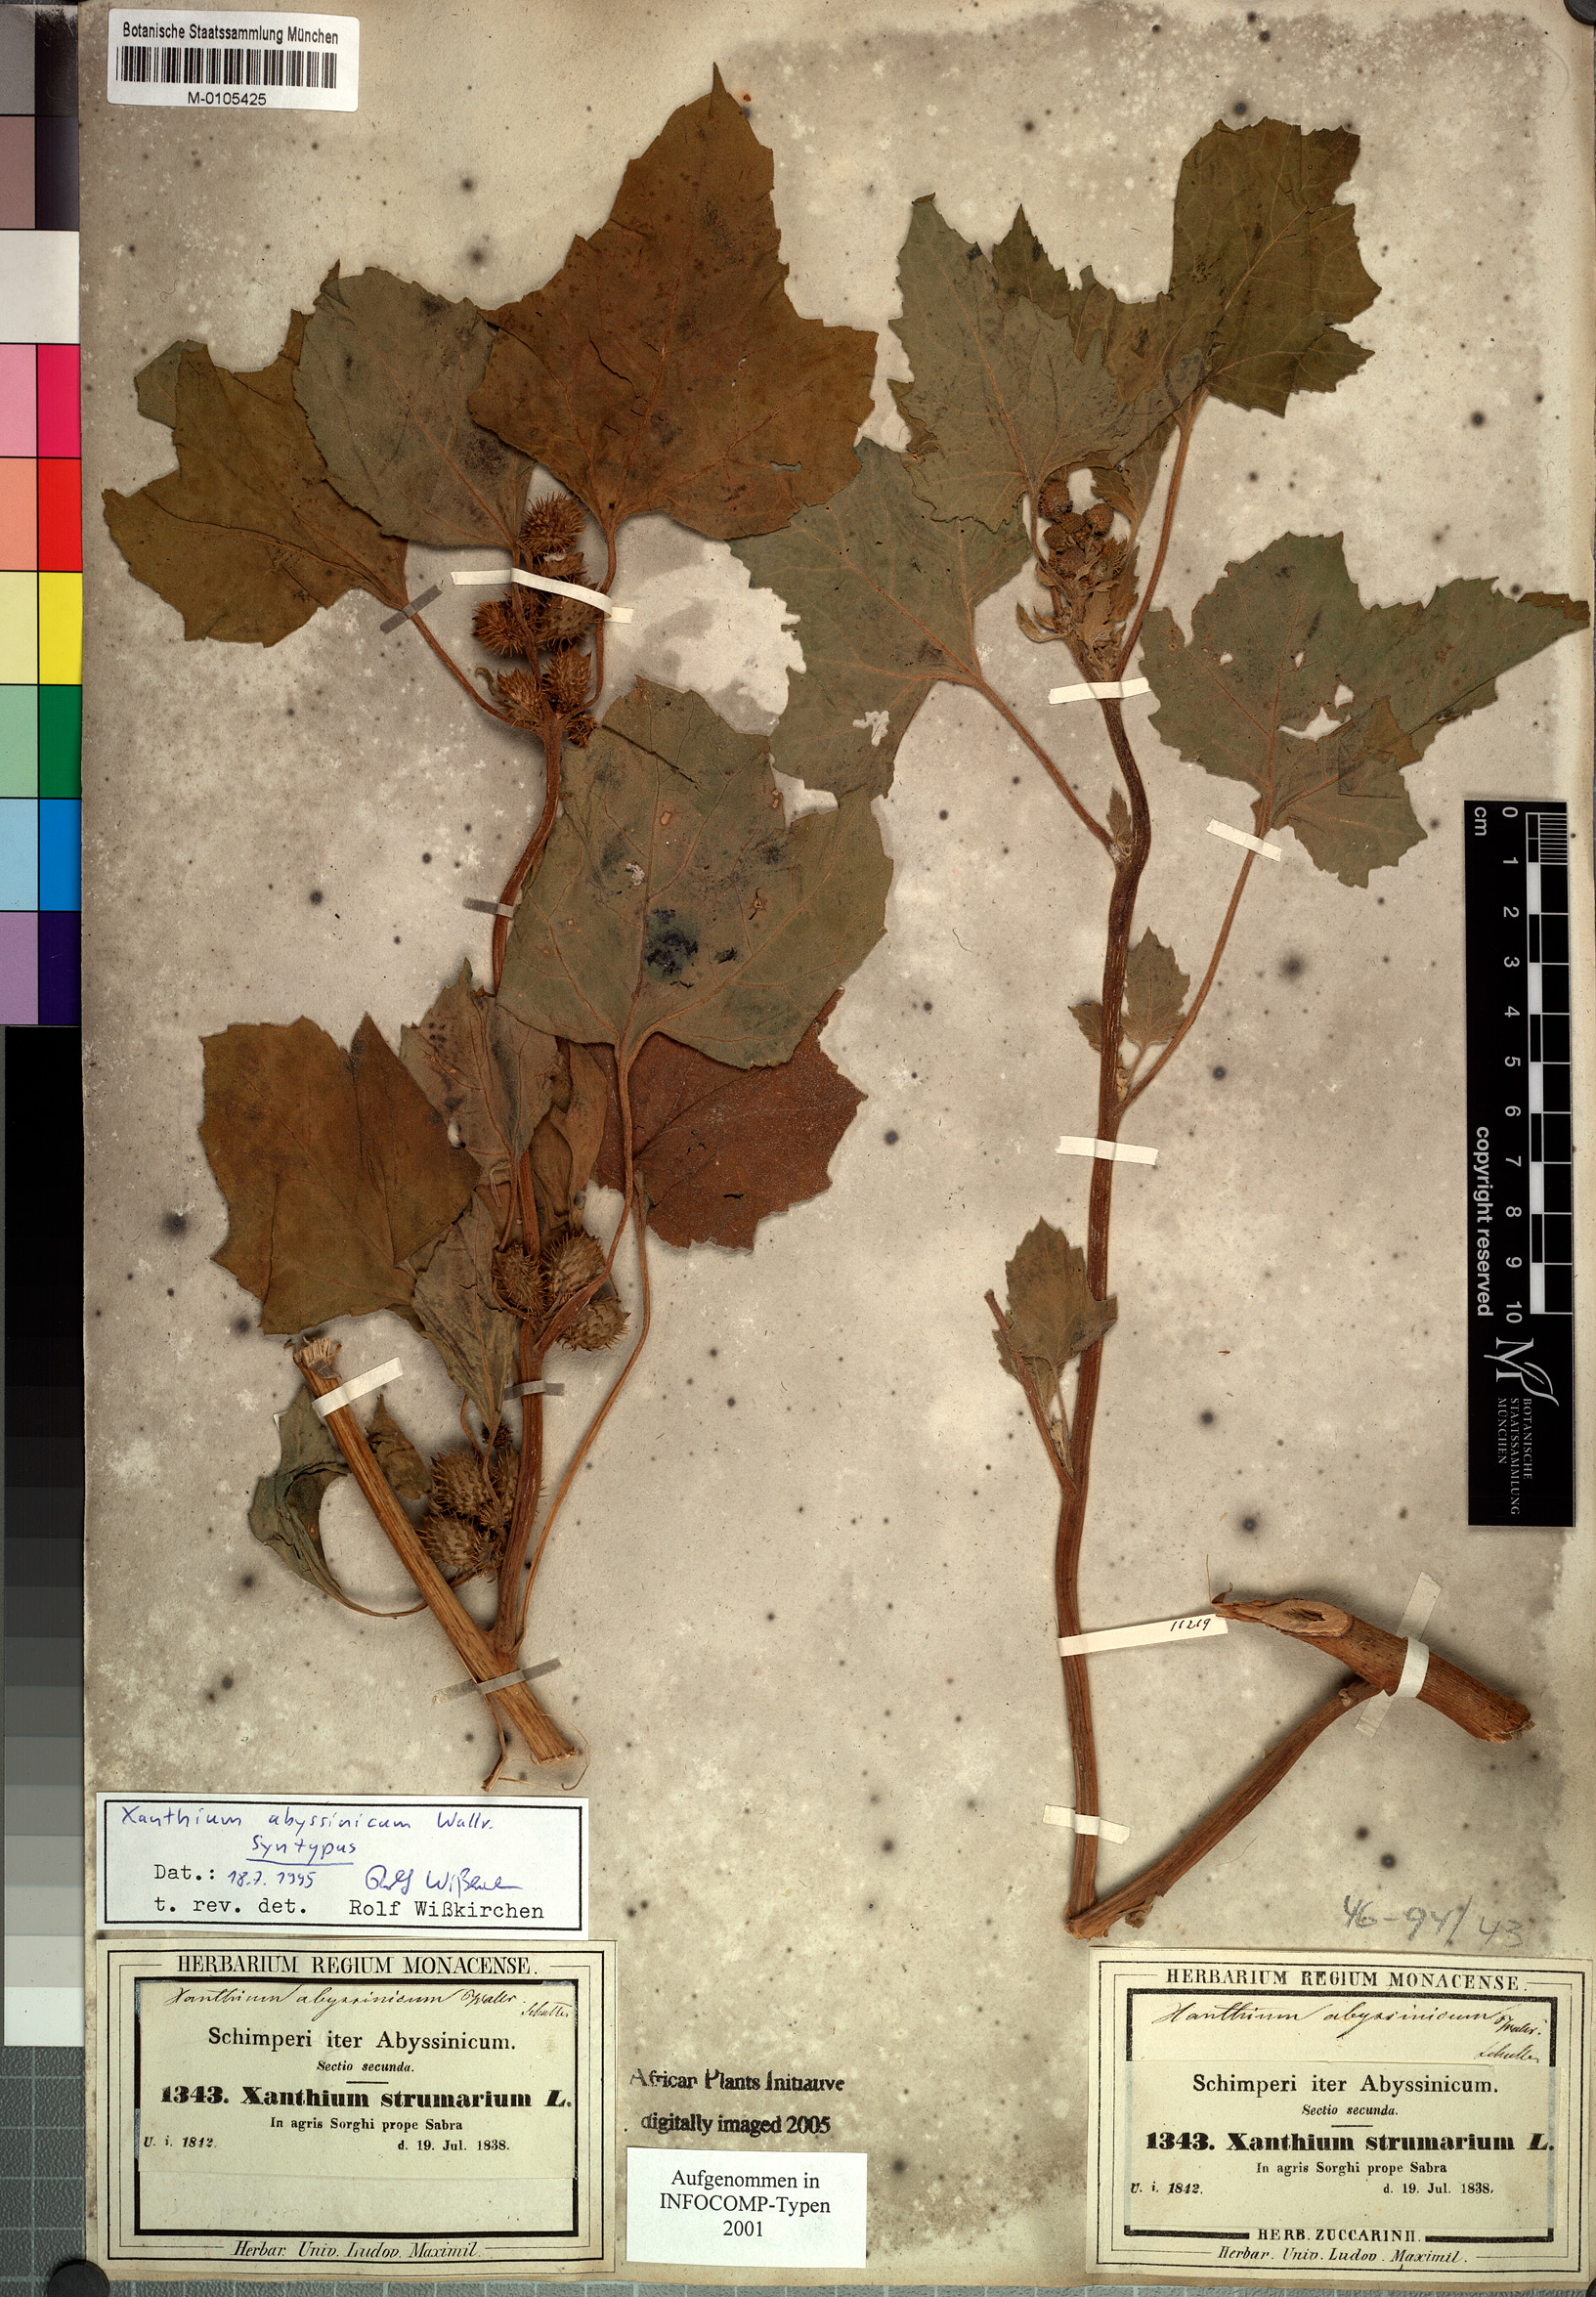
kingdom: Plantae
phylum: Tracheophyta
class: Magnoliopsida
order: Asterales
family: Asteraceae
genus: Xanthium
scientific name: Xanthium strumarium
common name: Rough cocklebur
